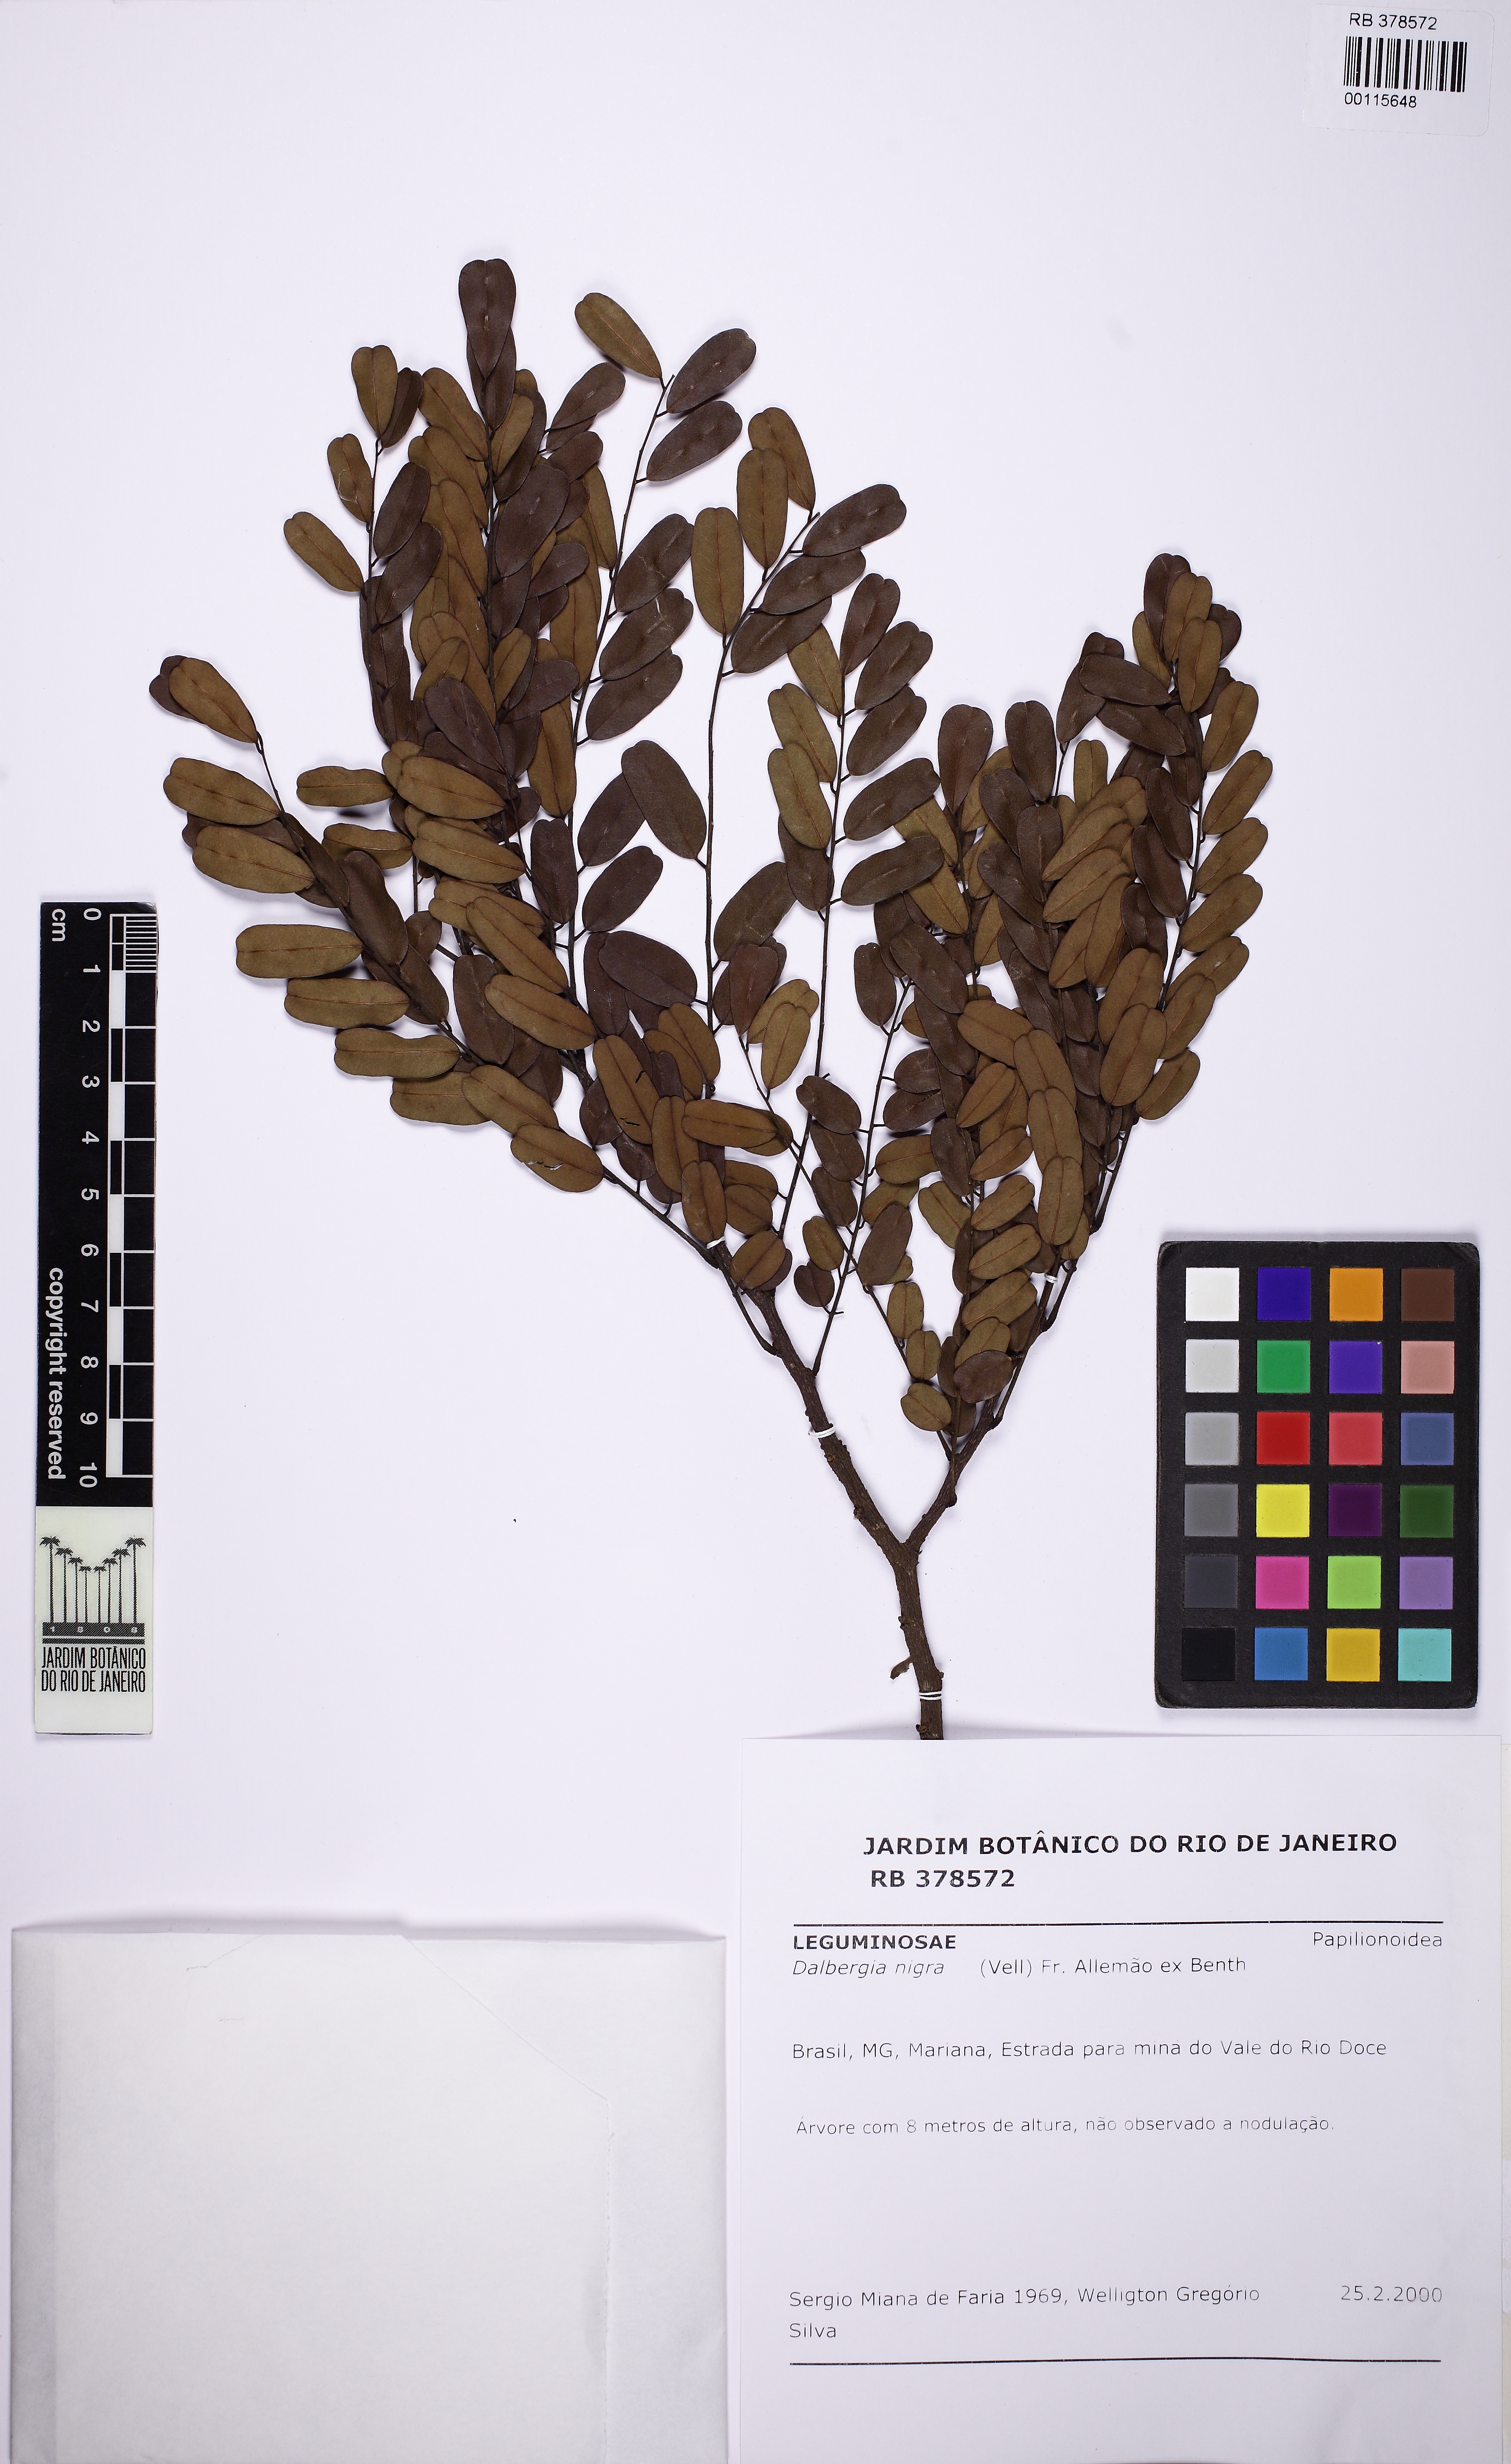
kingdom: Plantae
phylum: Tracheophyta
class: Magnoliopsida
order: Fabales
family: Fabaceae
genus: Dalbergia
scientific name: Dalbergia nigra
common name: Bahia rosewood
